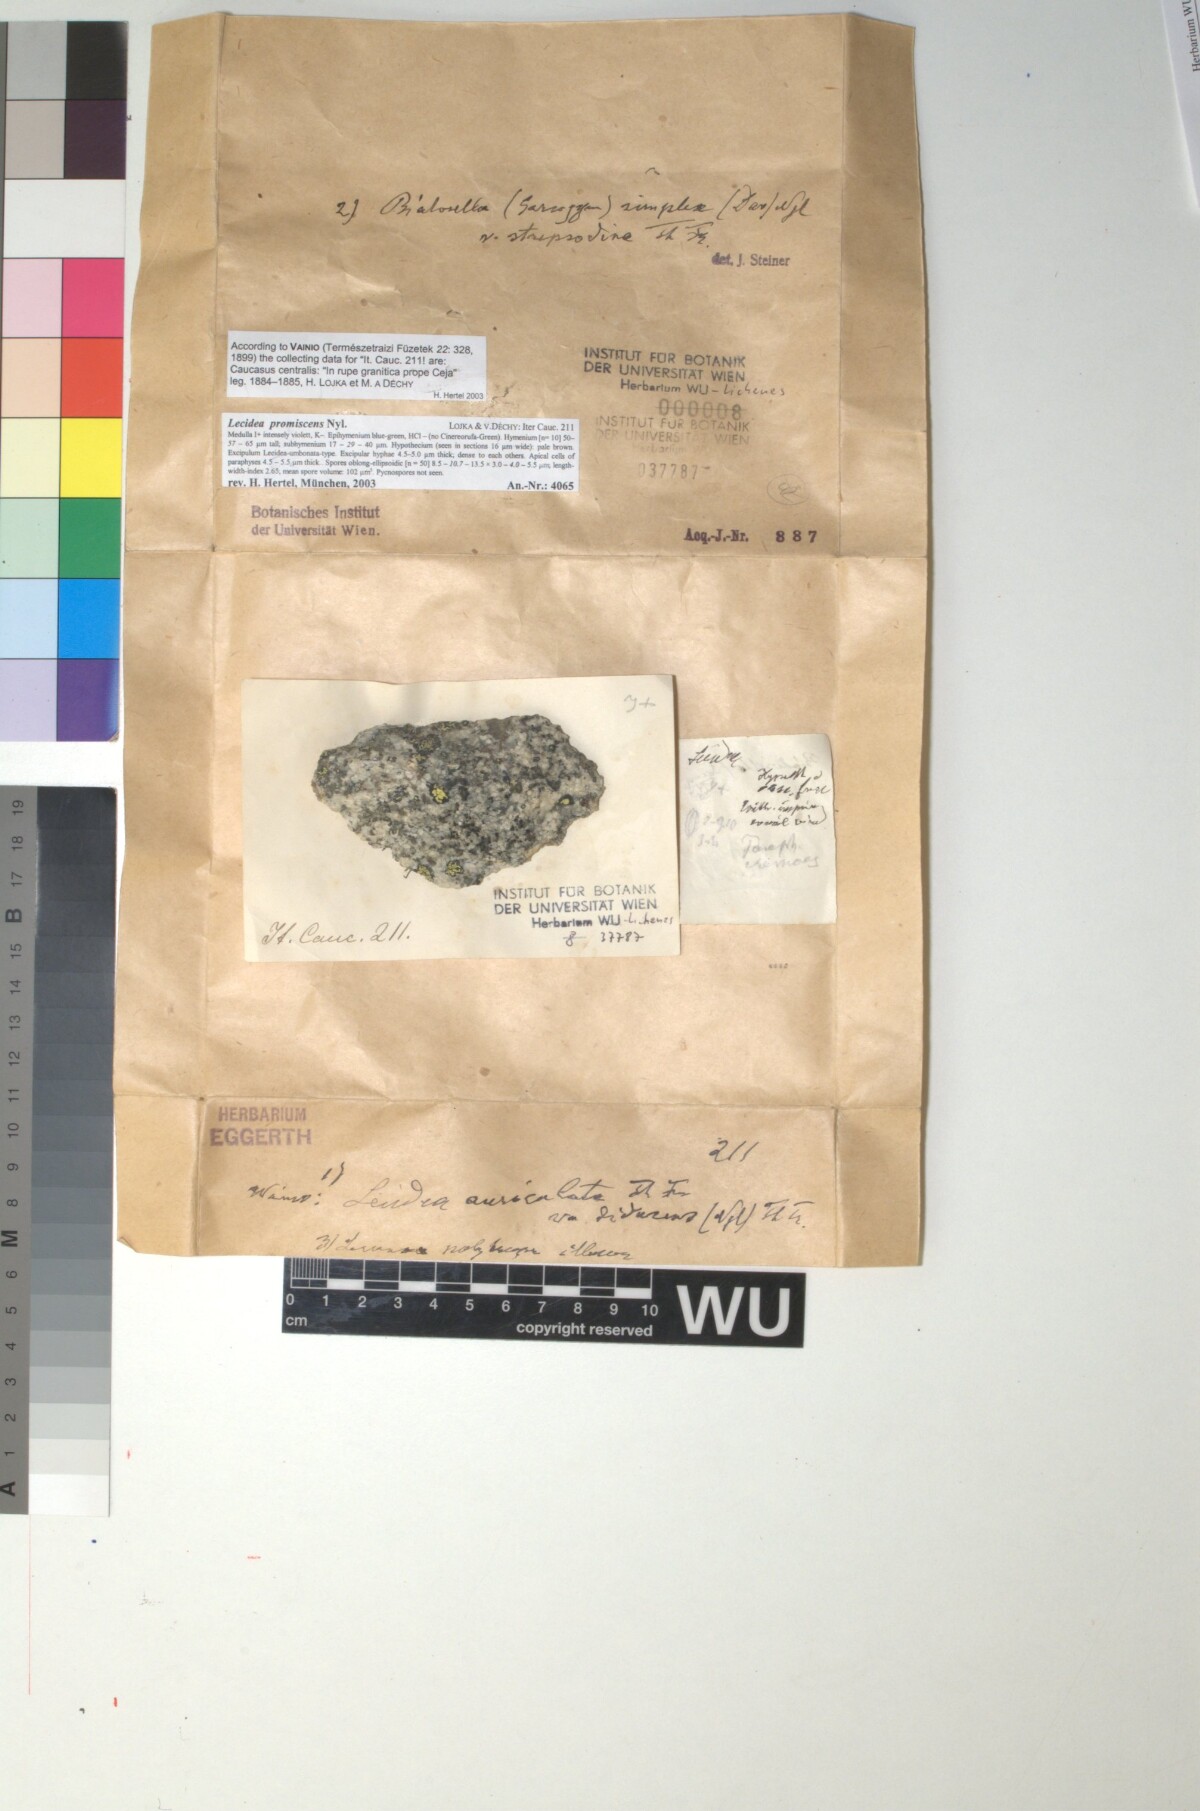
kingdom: Fungi
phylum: Ascomycota
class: Lecanoromycetes
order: Lecideales
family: Lecideaceae
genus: Lecidea
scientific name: Lecidea promiscens
